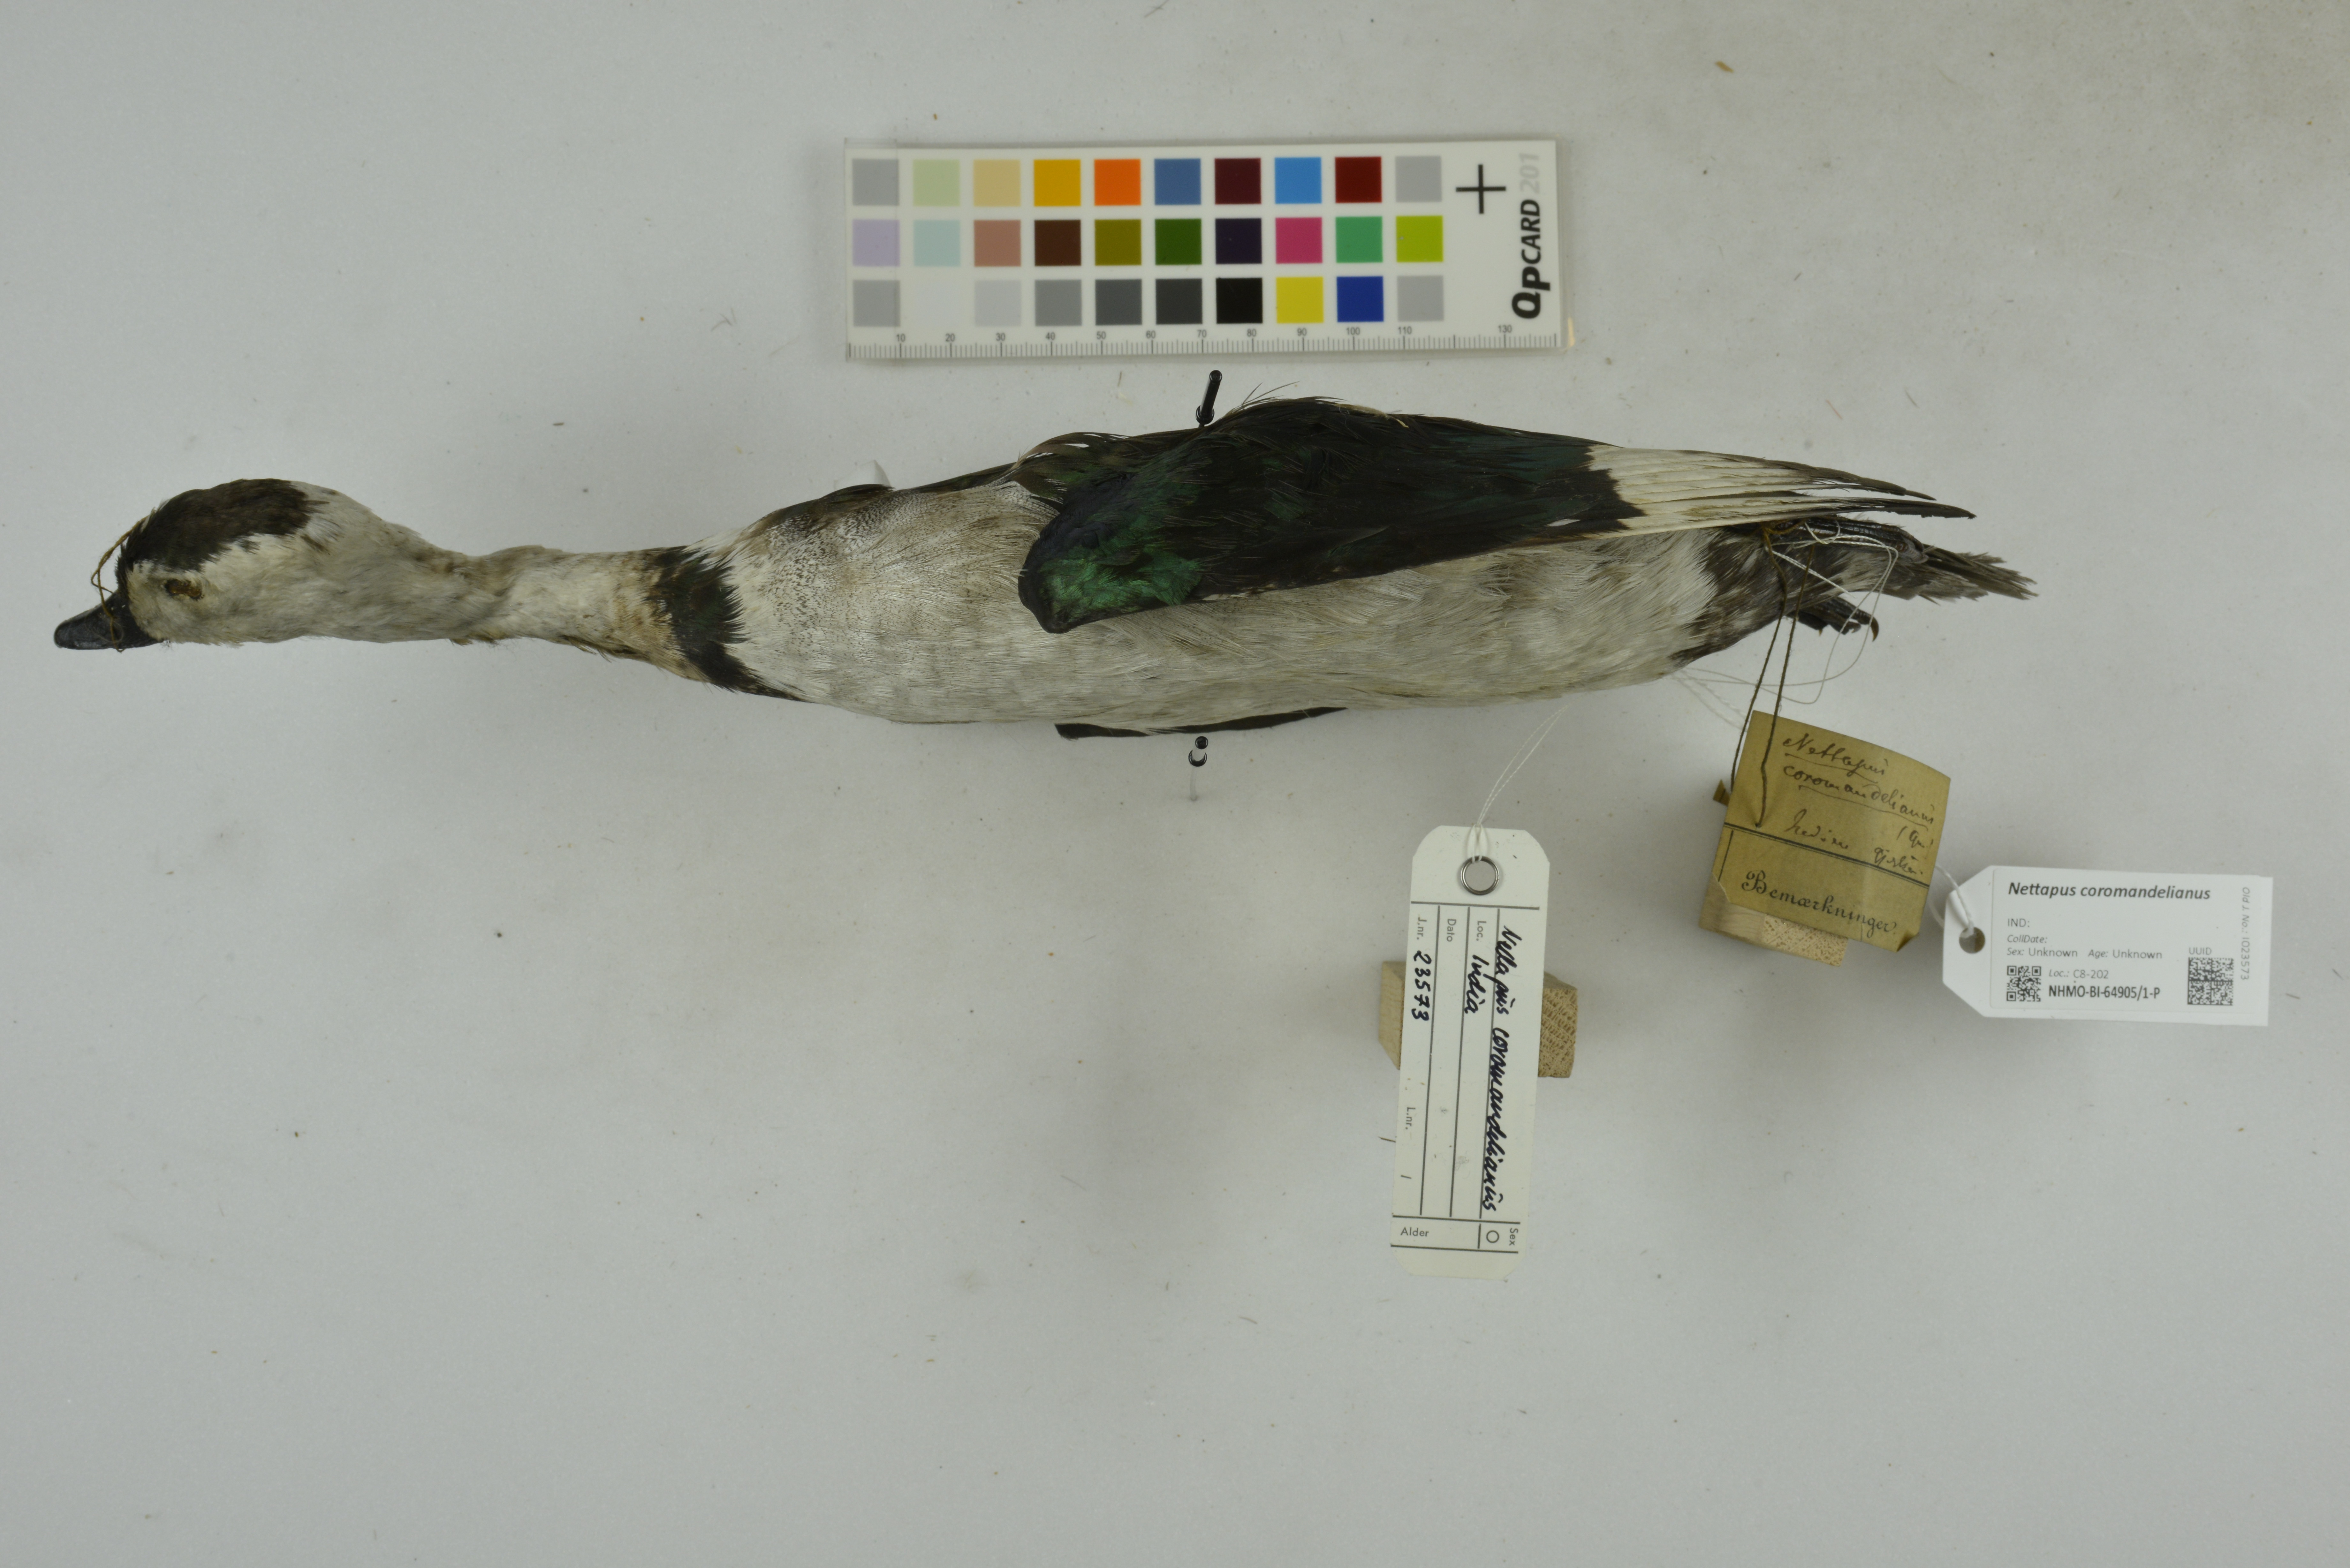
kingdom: Animalia
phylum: Chordata
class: Aves
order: Anseriformes
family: Anatidae
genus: Nettapus
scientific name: Nettapus coromandelianus
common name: Cotton pygmy-goose
